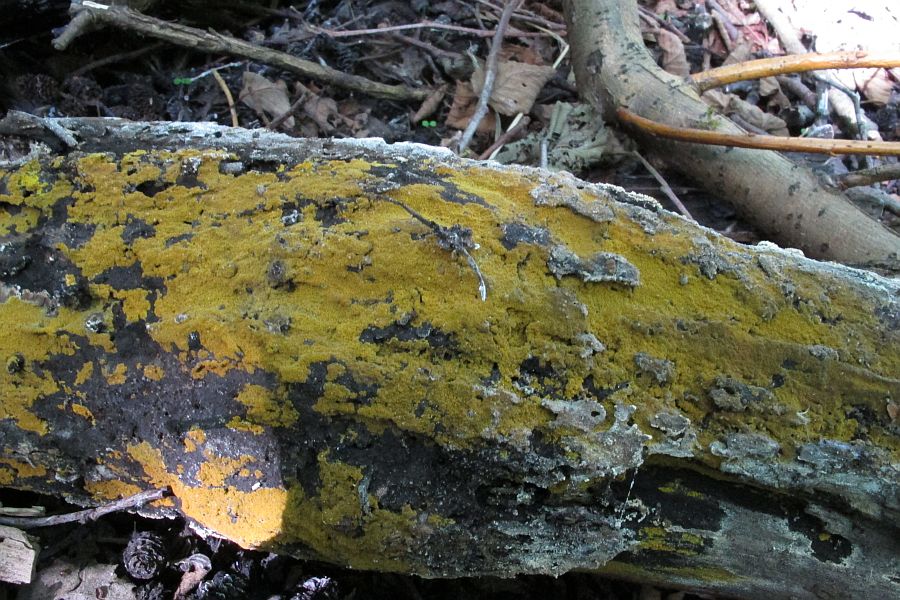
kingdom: Fungi
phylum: Basidiomycota
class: Agaricomycetes
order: Polyporales
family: Meruliaceae
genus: Phlebiodontia
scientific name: Phlebiodontia subochracea
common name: svovl-åresvamp
